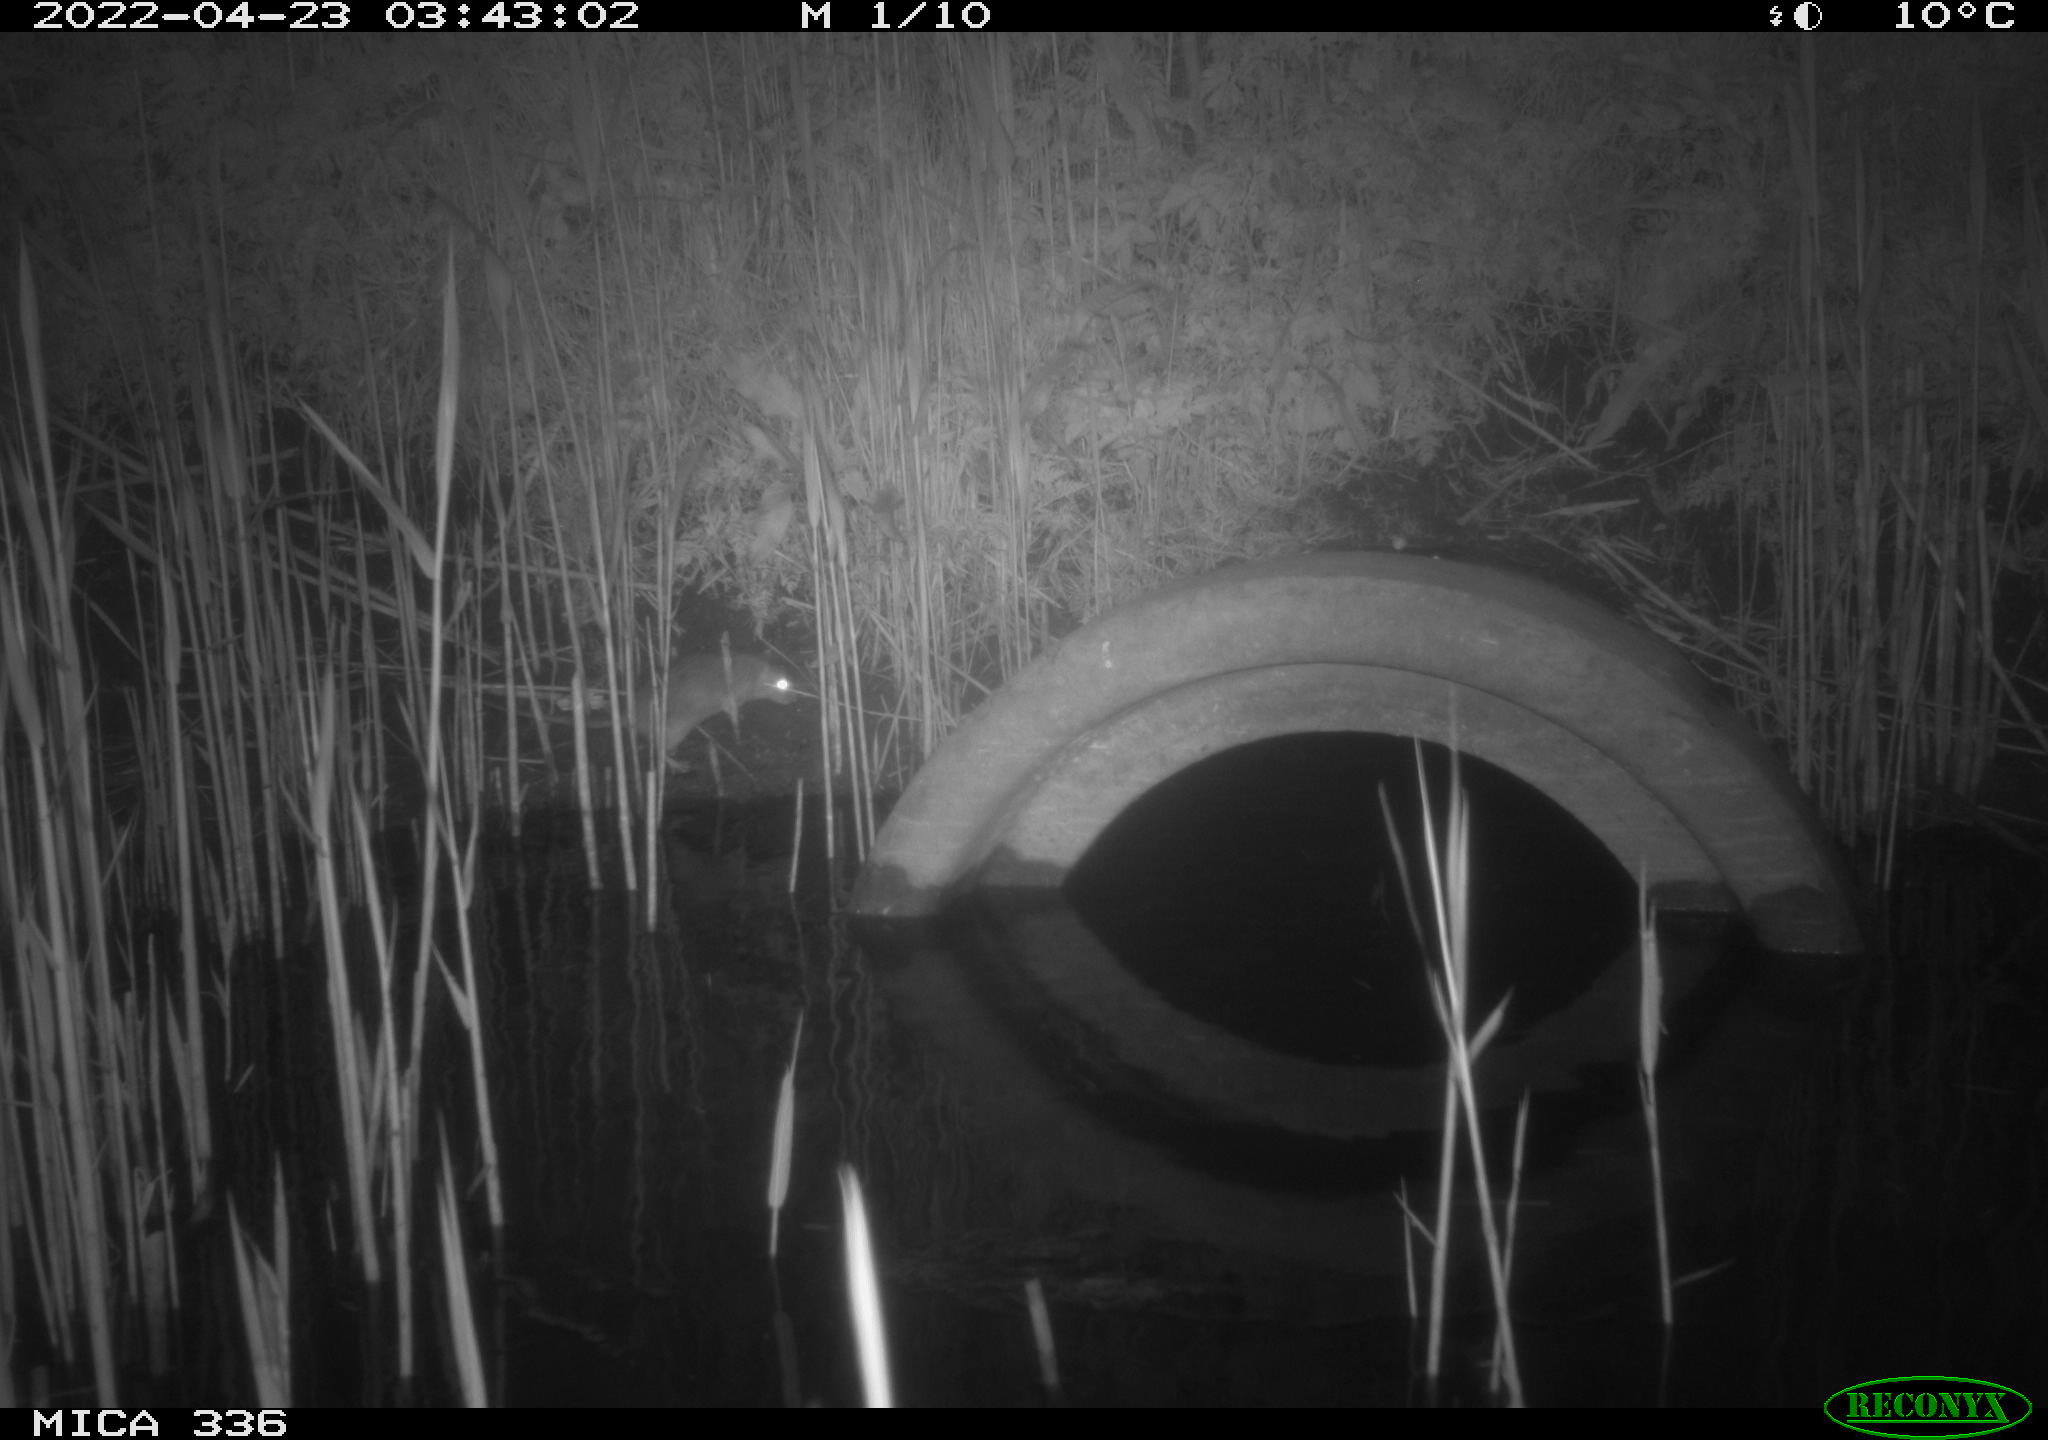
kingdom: Animalia
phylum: Chordata
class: Mammalia
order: Rodentia
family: Muridae
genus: Rattus
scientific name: Rattus norvegicus
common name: Brown rat
